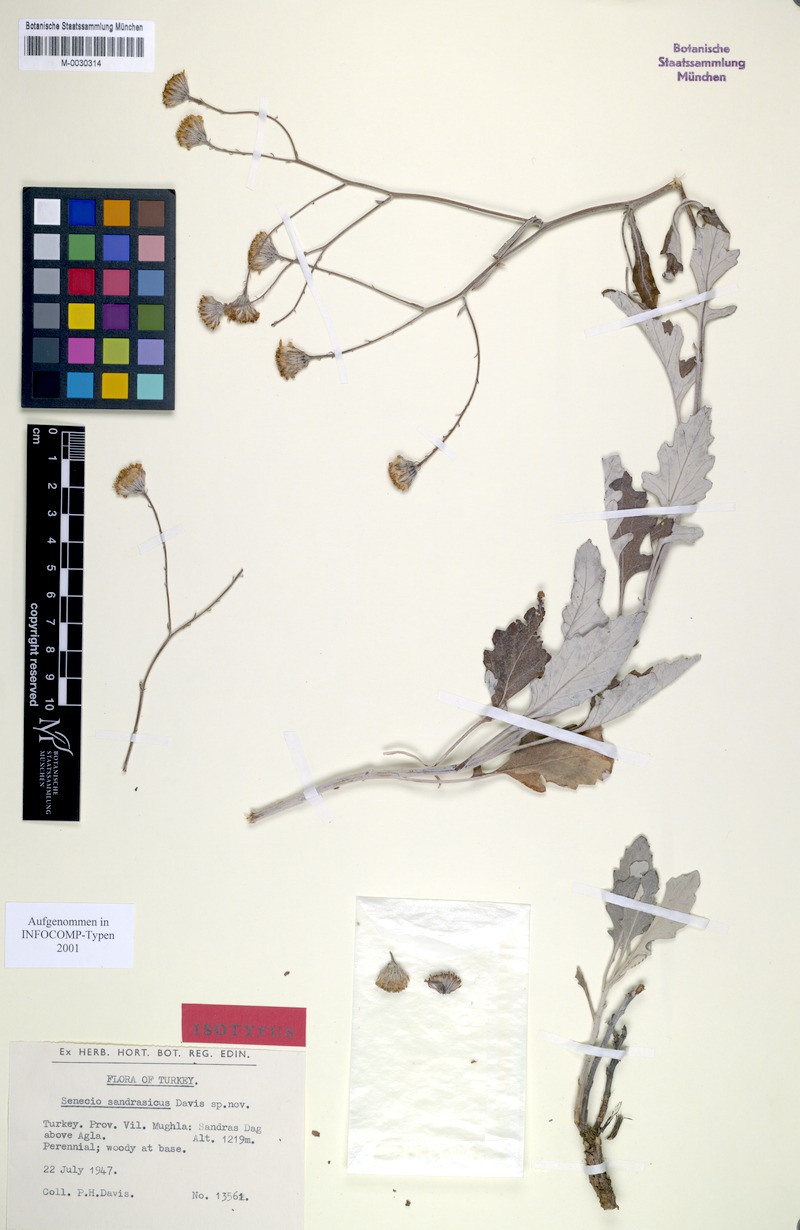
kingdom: Plantae
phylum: Tracheophyta
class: Magnoliopsida
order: Asterales
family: Asteraceae
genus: Jacobaea
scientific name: Jacobaea sandrasica
